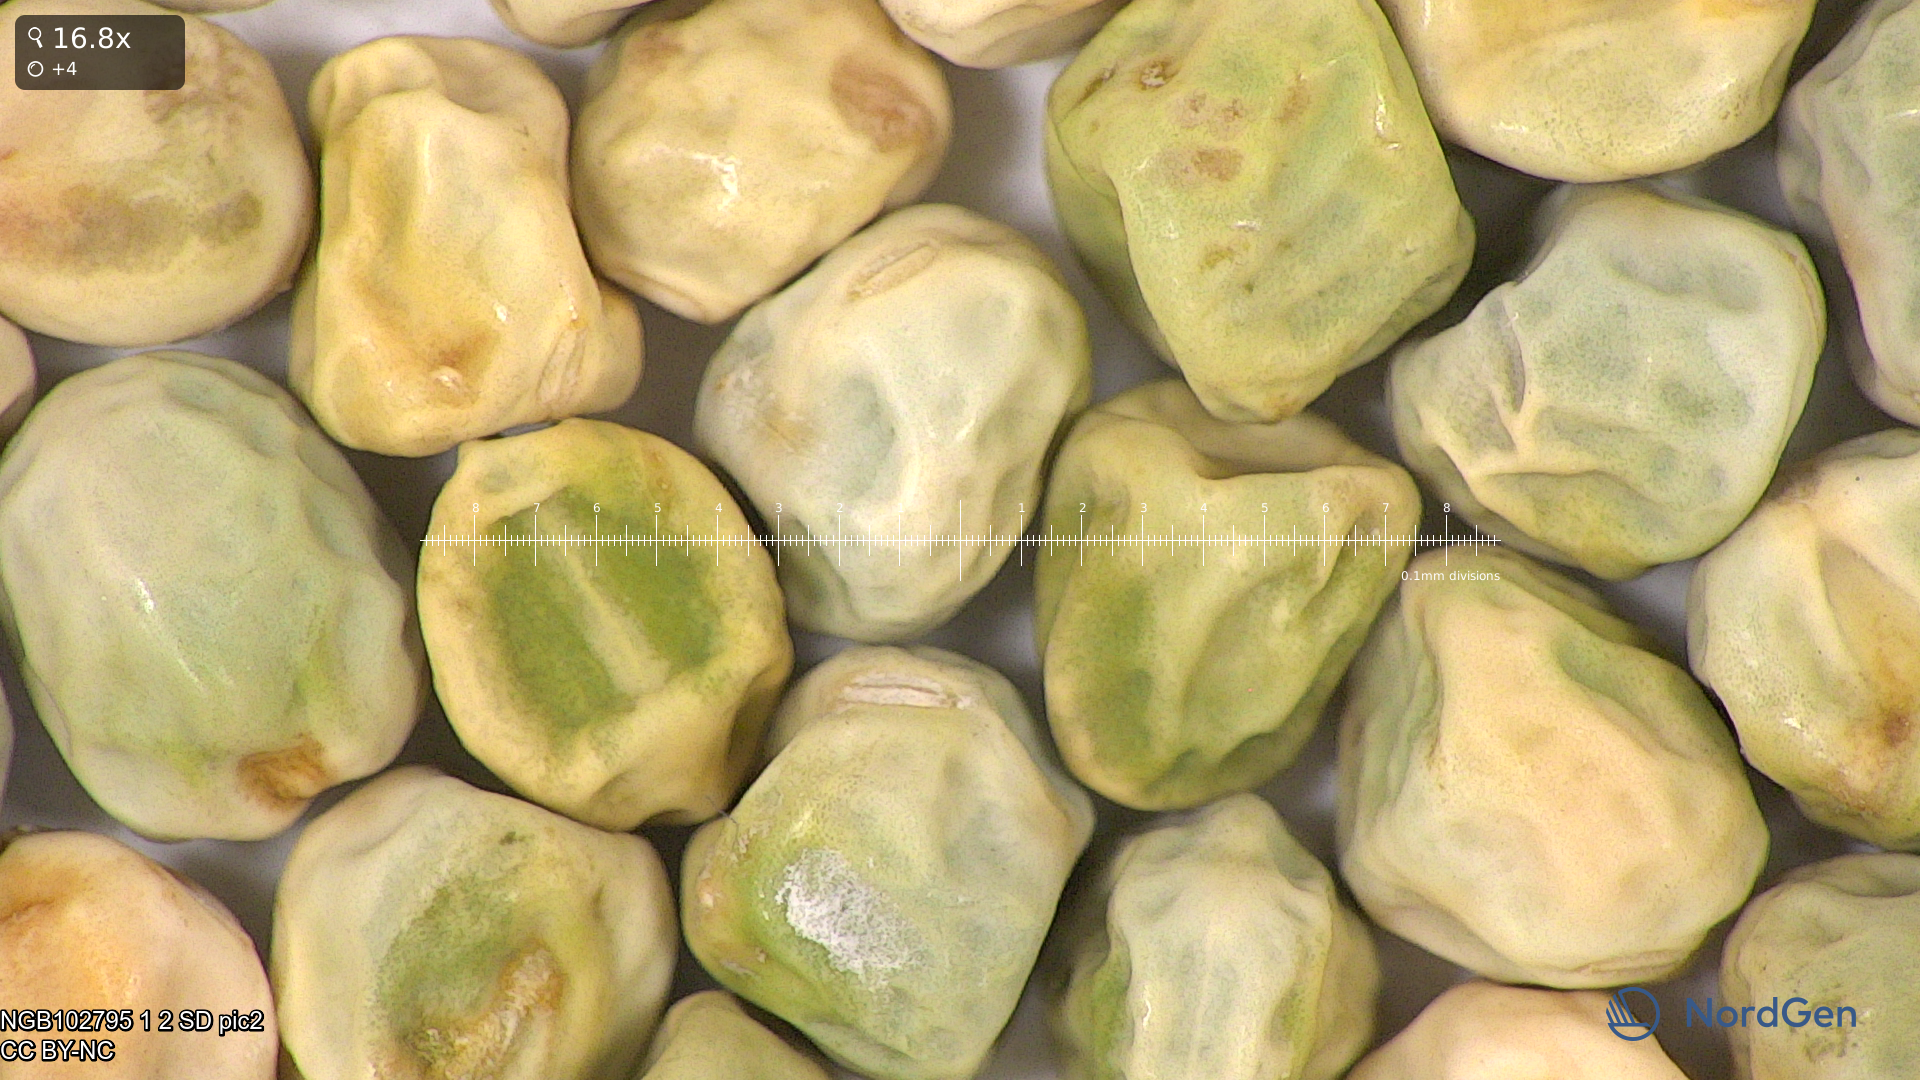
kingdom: Plantae
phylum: Tracheophyta
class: Magnoliopsida
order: Fabales
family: Fabaceae
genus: Lathyrus
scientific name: Lathyrus oleraceus
